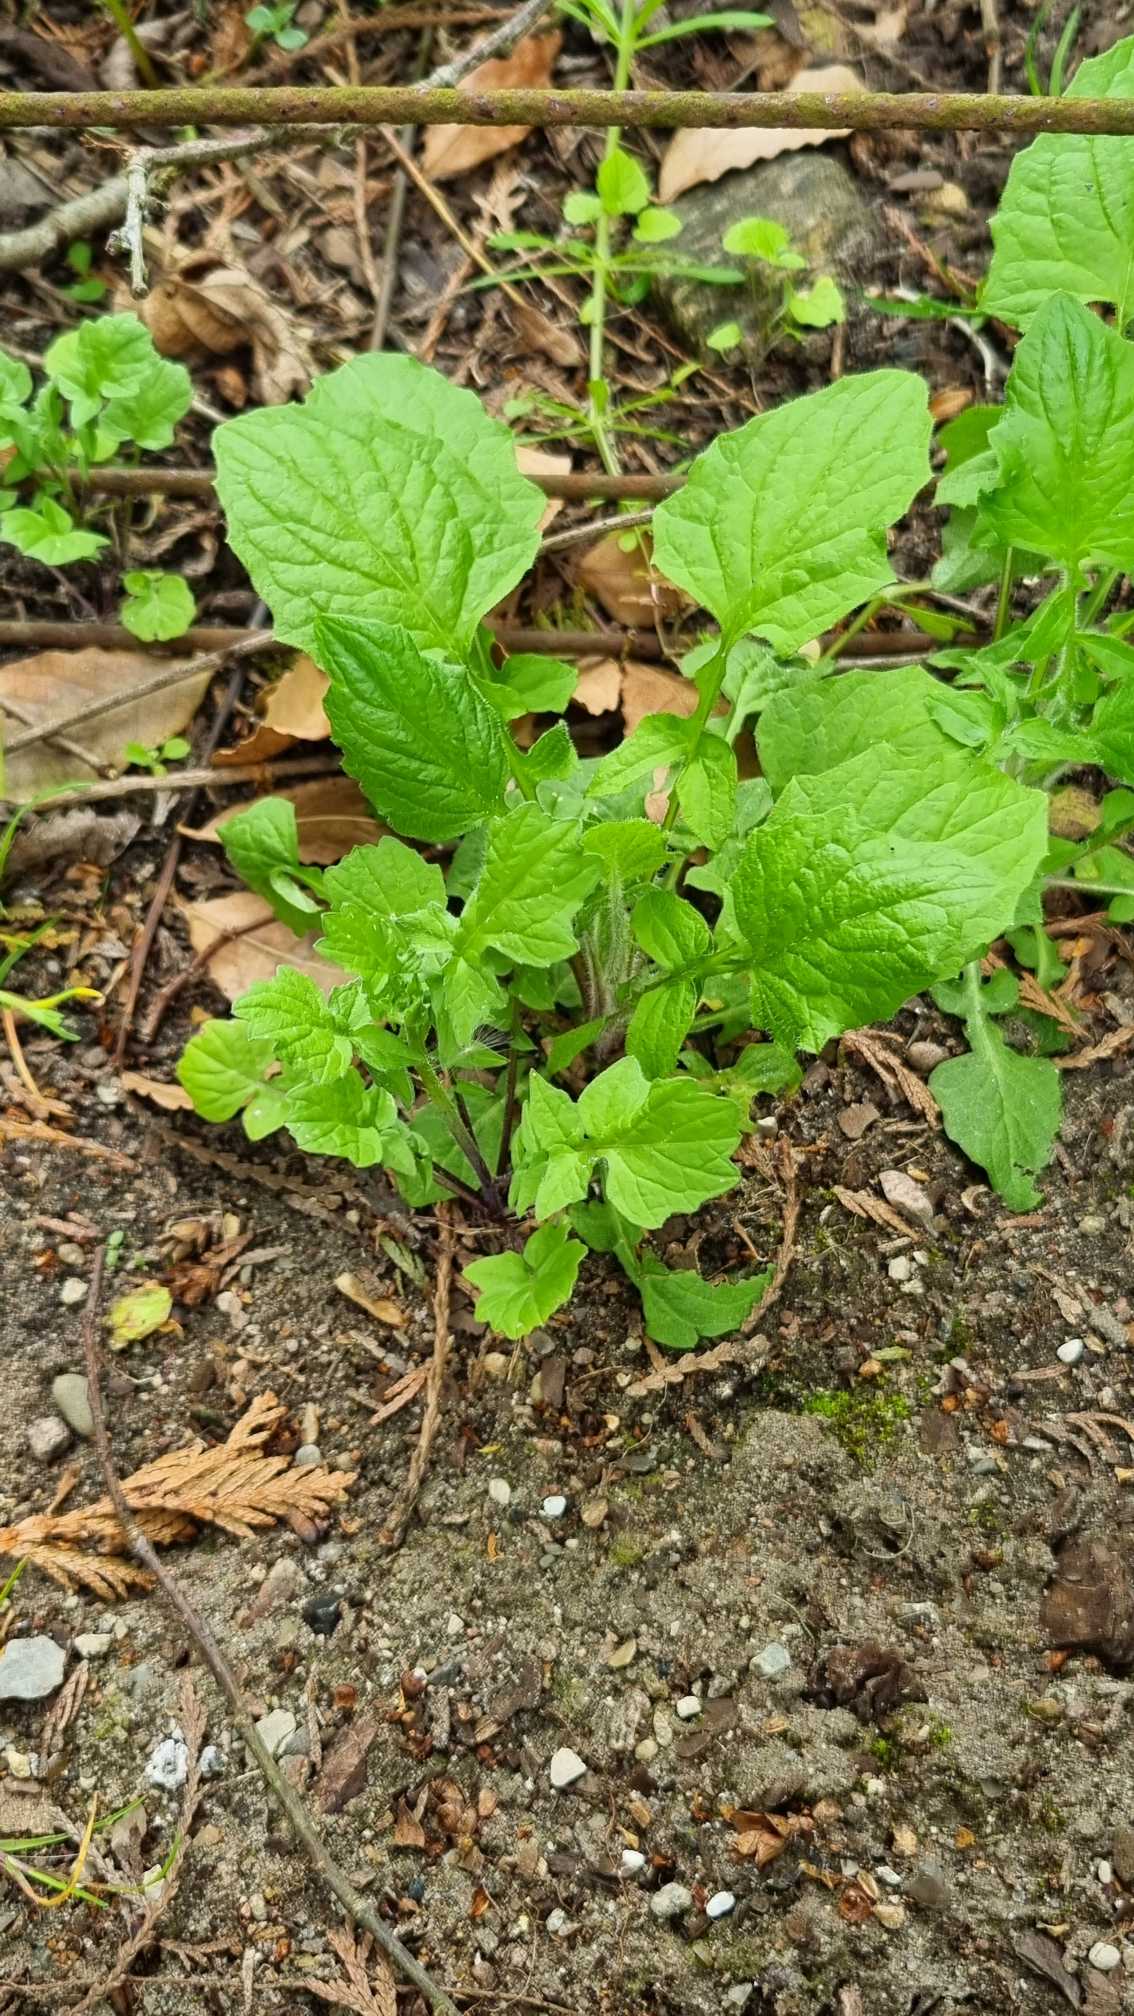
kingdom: Plantae
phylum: Tracheophyta
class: Magnoliopsida
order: Asterales
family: Asteraceae
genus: Lapsana
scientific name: Lapsana communis
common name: Haremad
